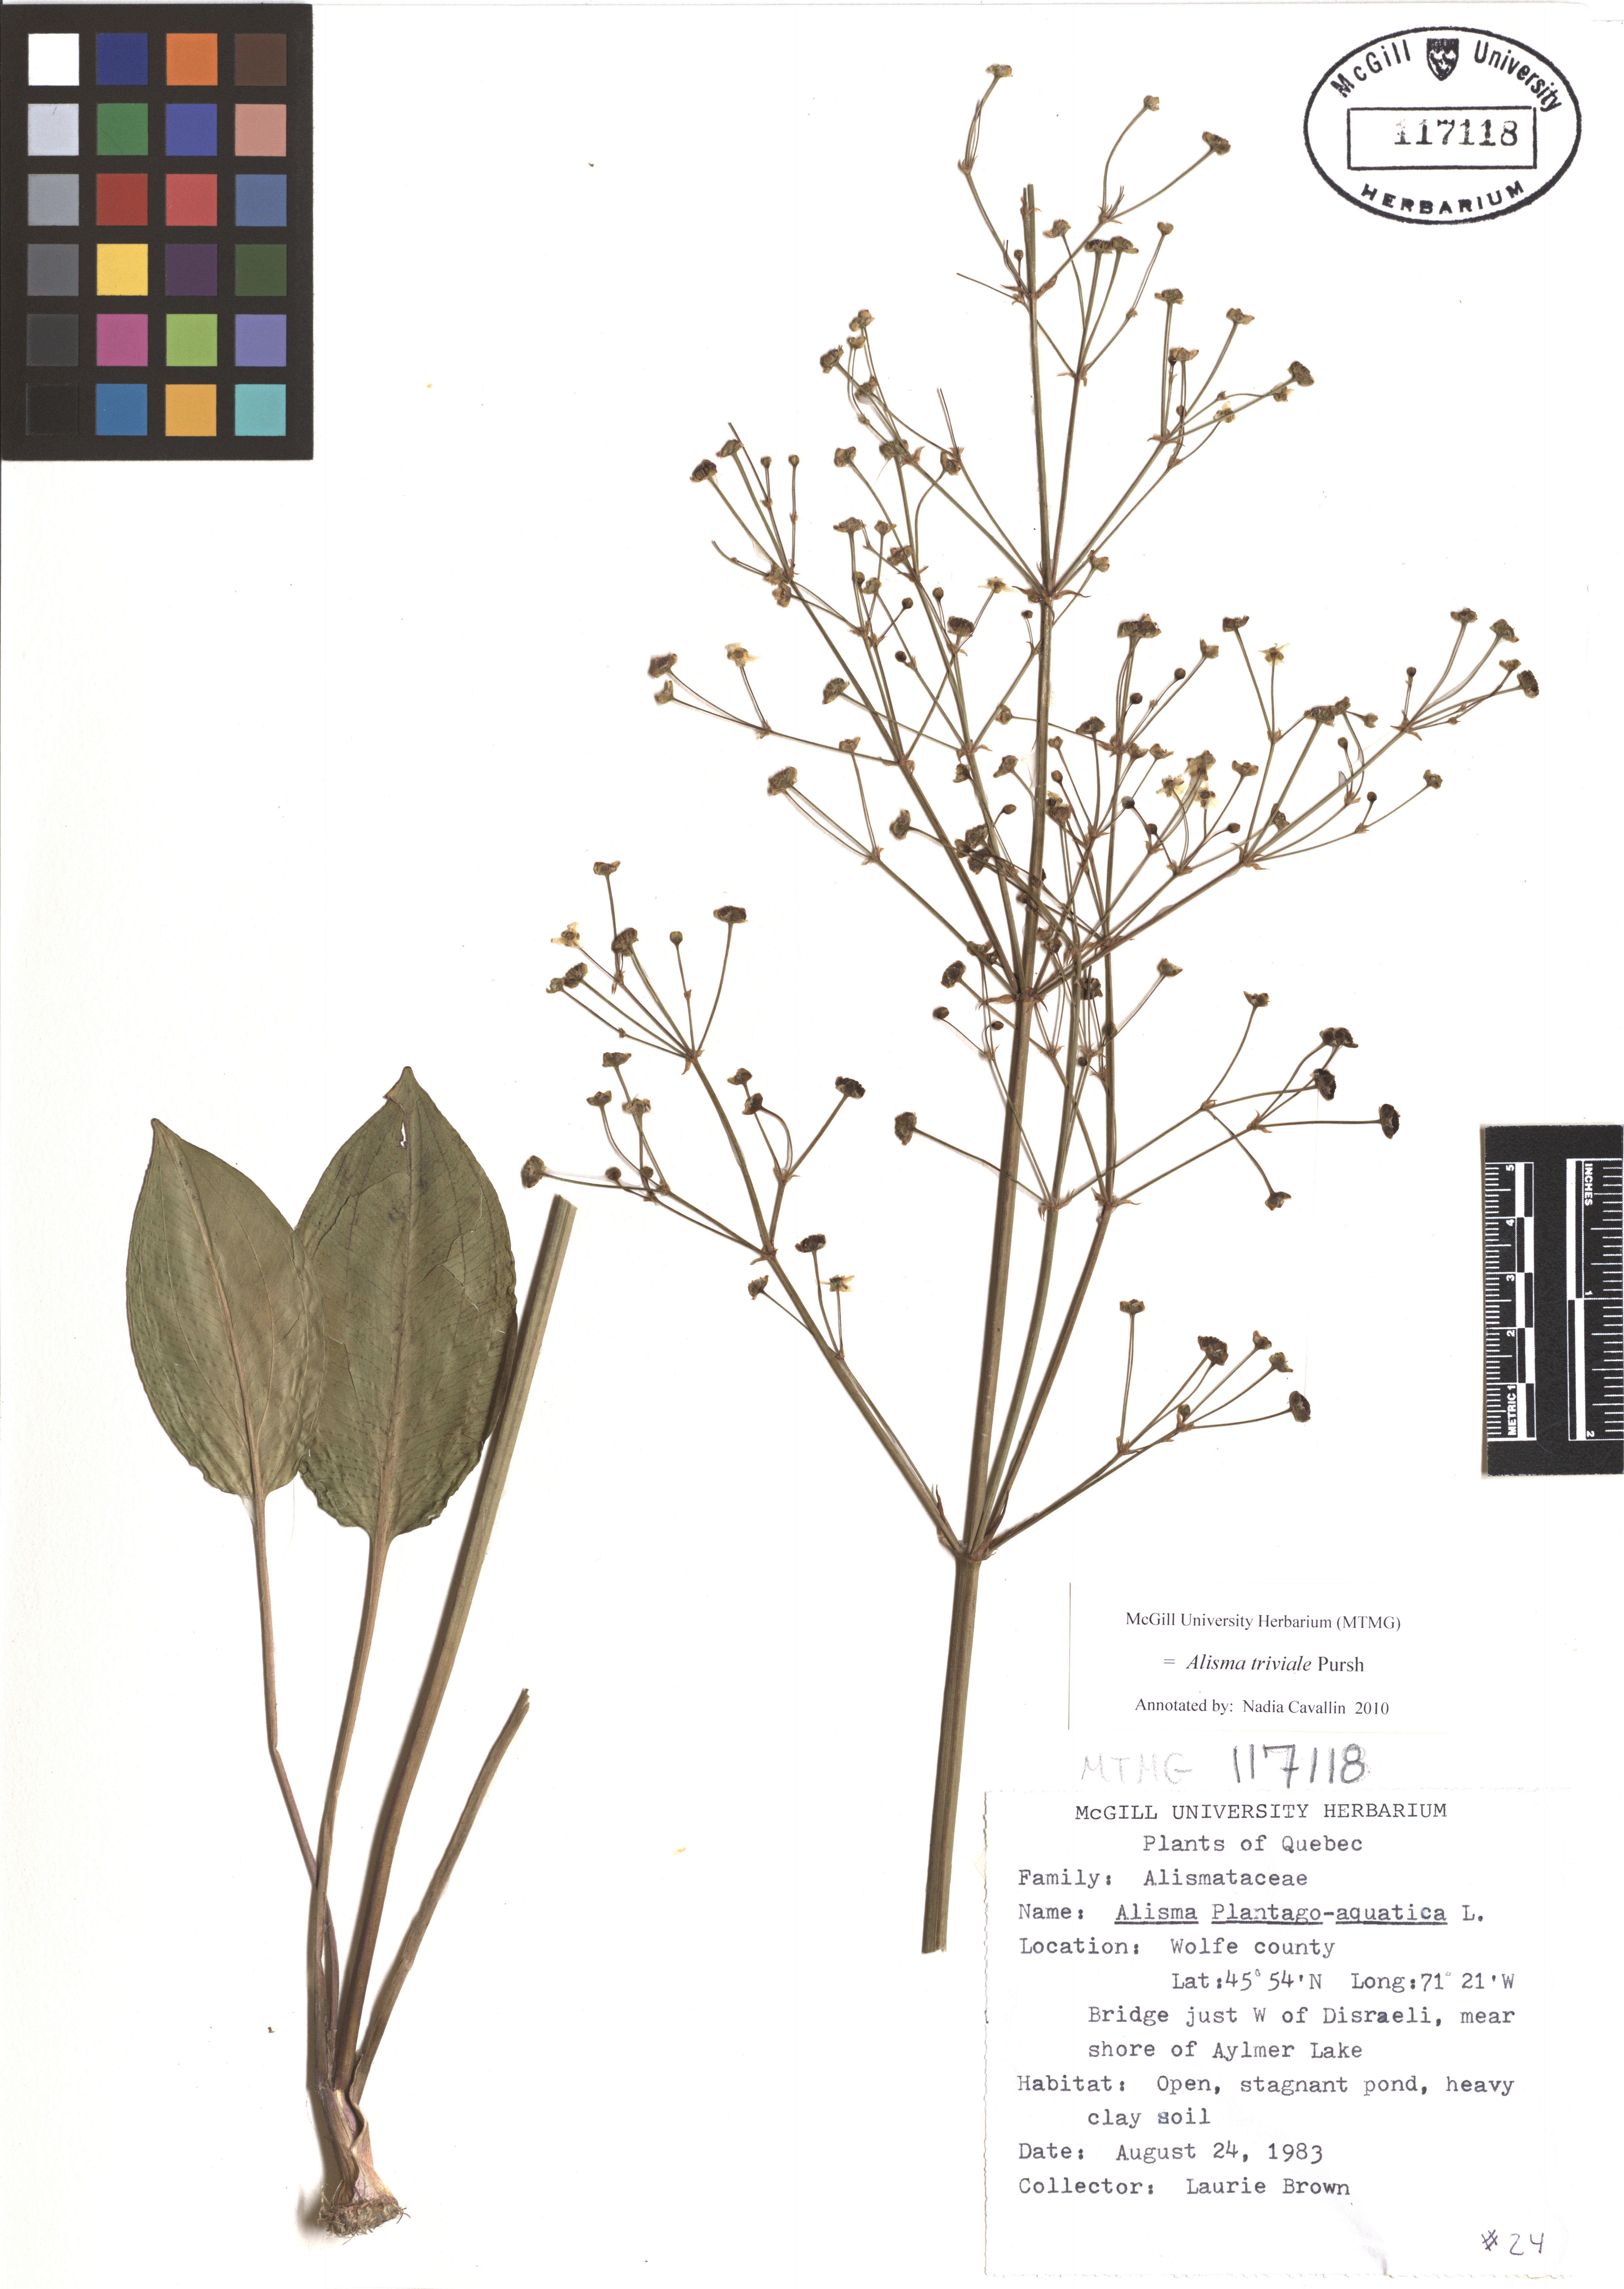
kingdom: Plantae
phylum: Tracheophyta
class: Liliopsida
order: Alismatales
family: Alismataceae
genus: Alisma
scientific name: Alisma triviale
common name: Northern water-plantain
